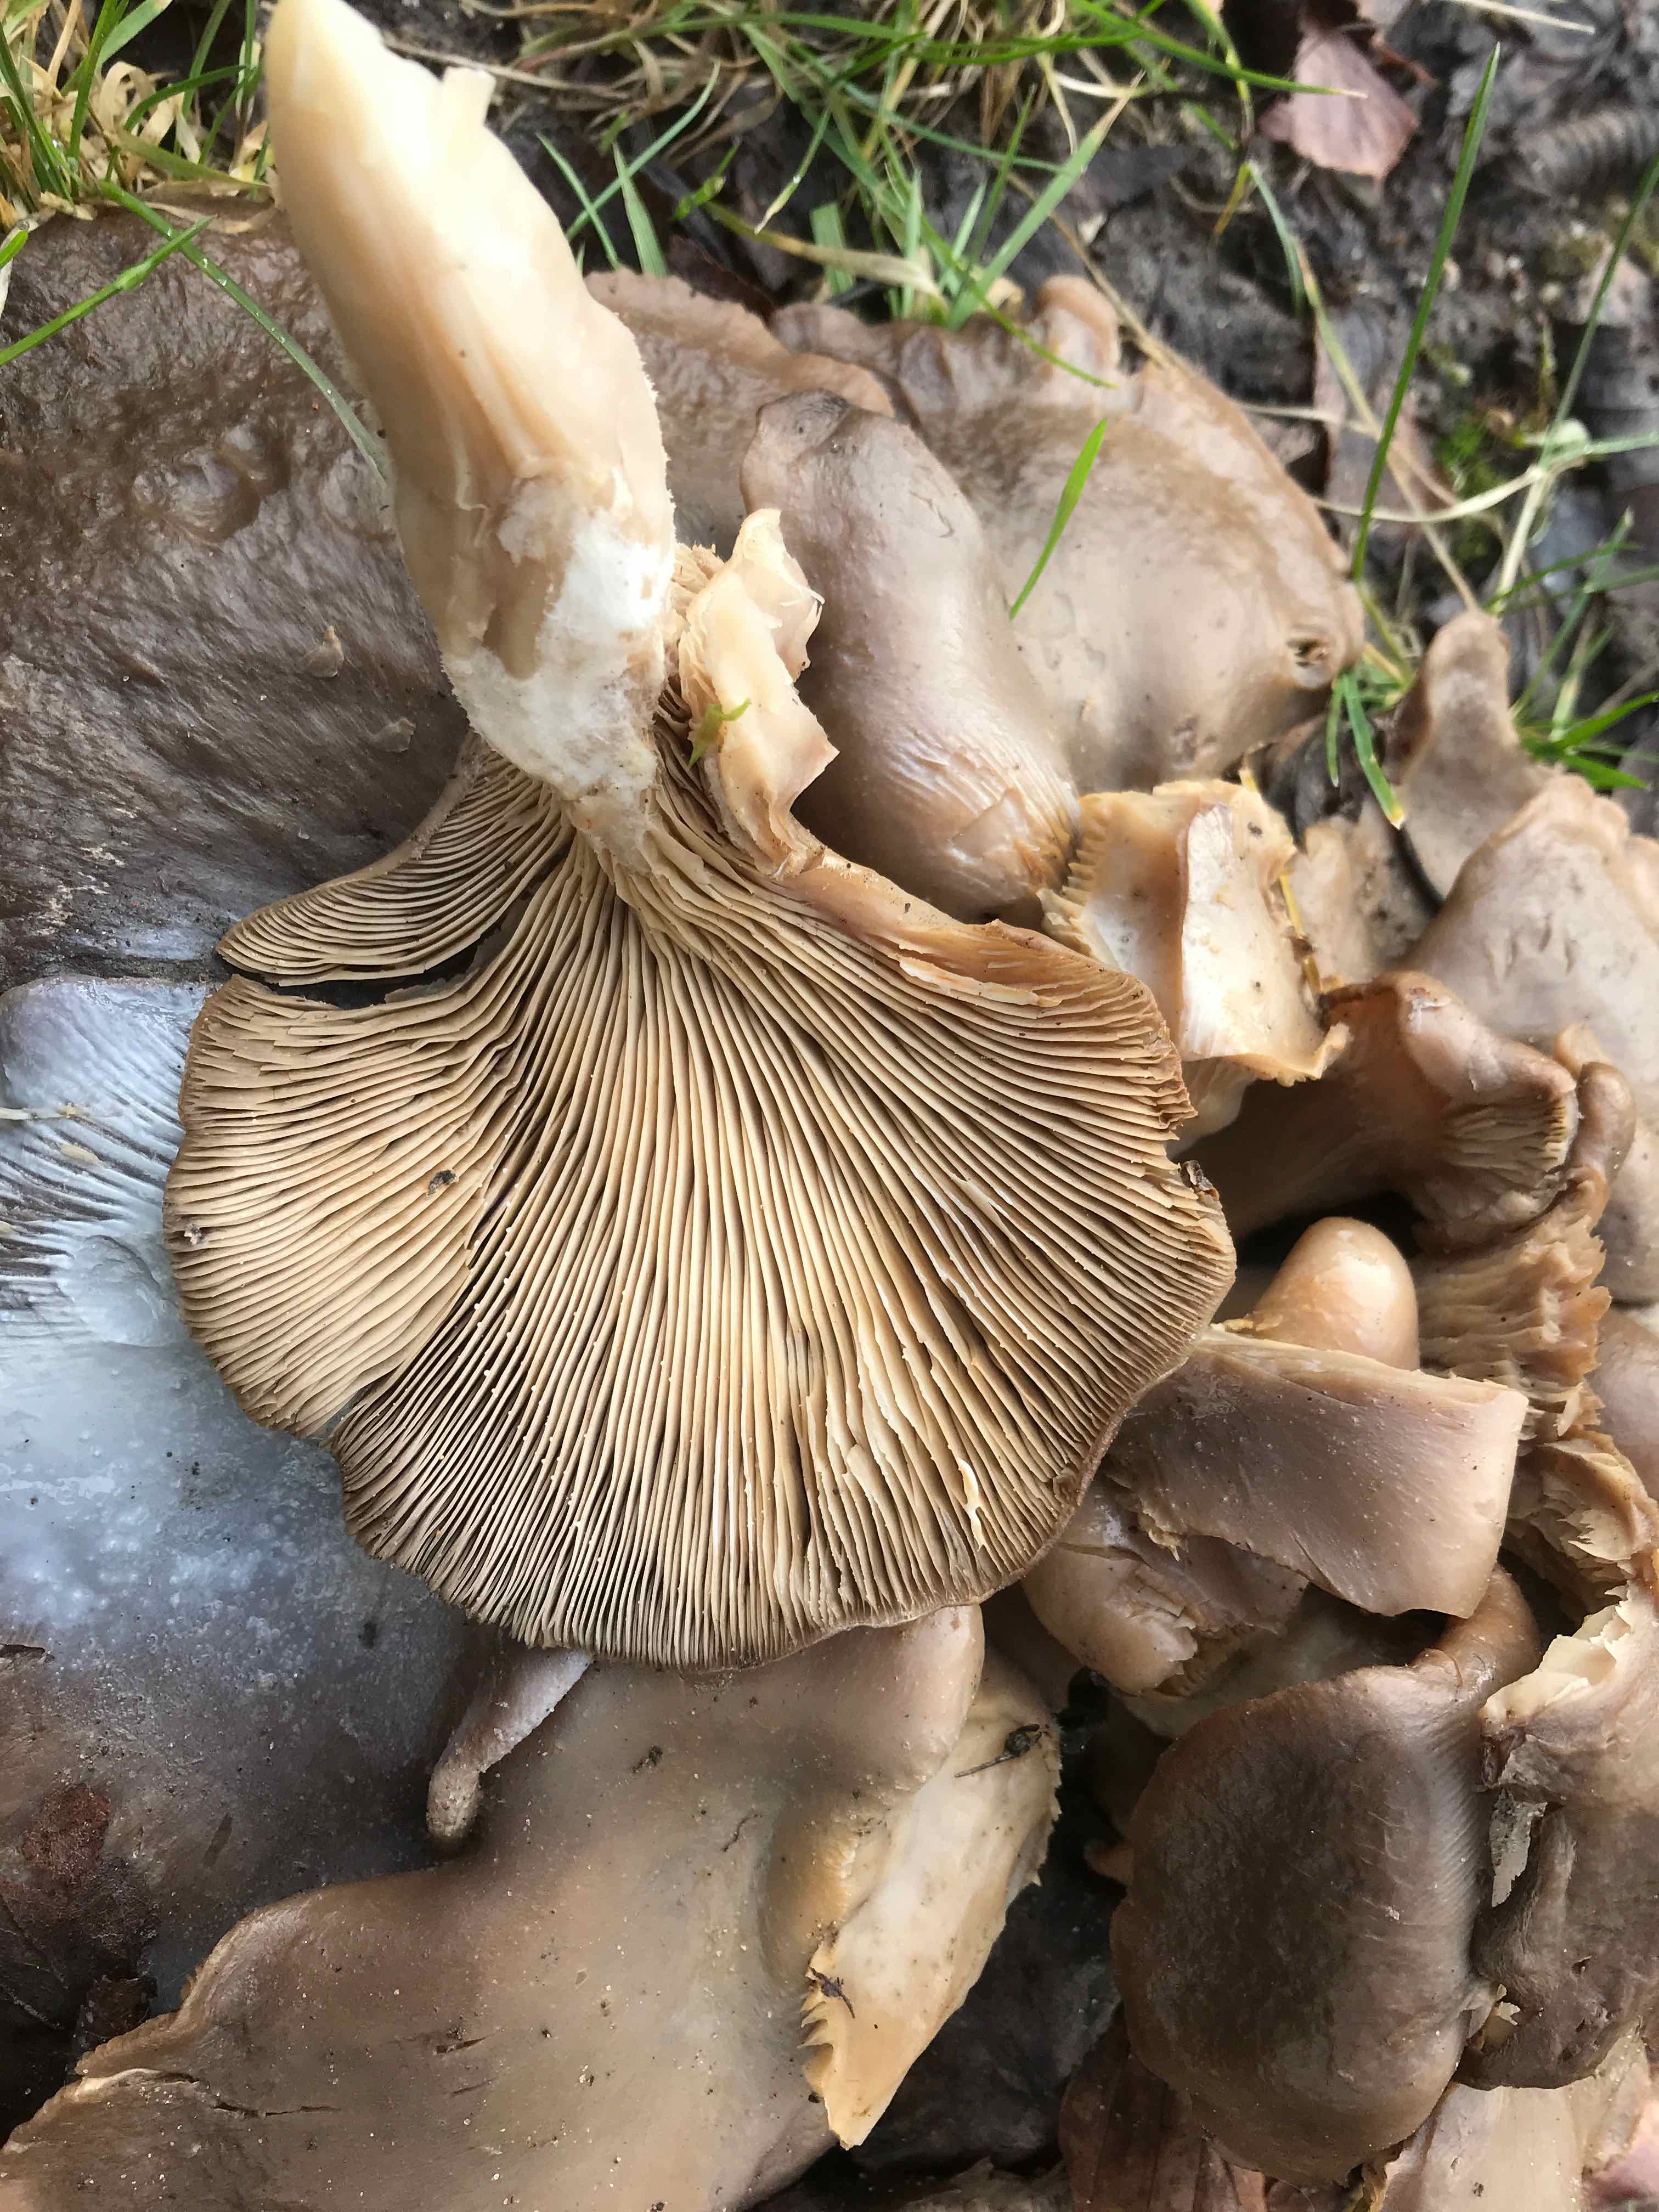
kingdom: Fungi
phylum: Basidiomycota
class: Agaricomycetes
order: Agaricales
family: Pleurotaceae
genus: Pleurotus
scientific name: Pleurotus ostreatus
